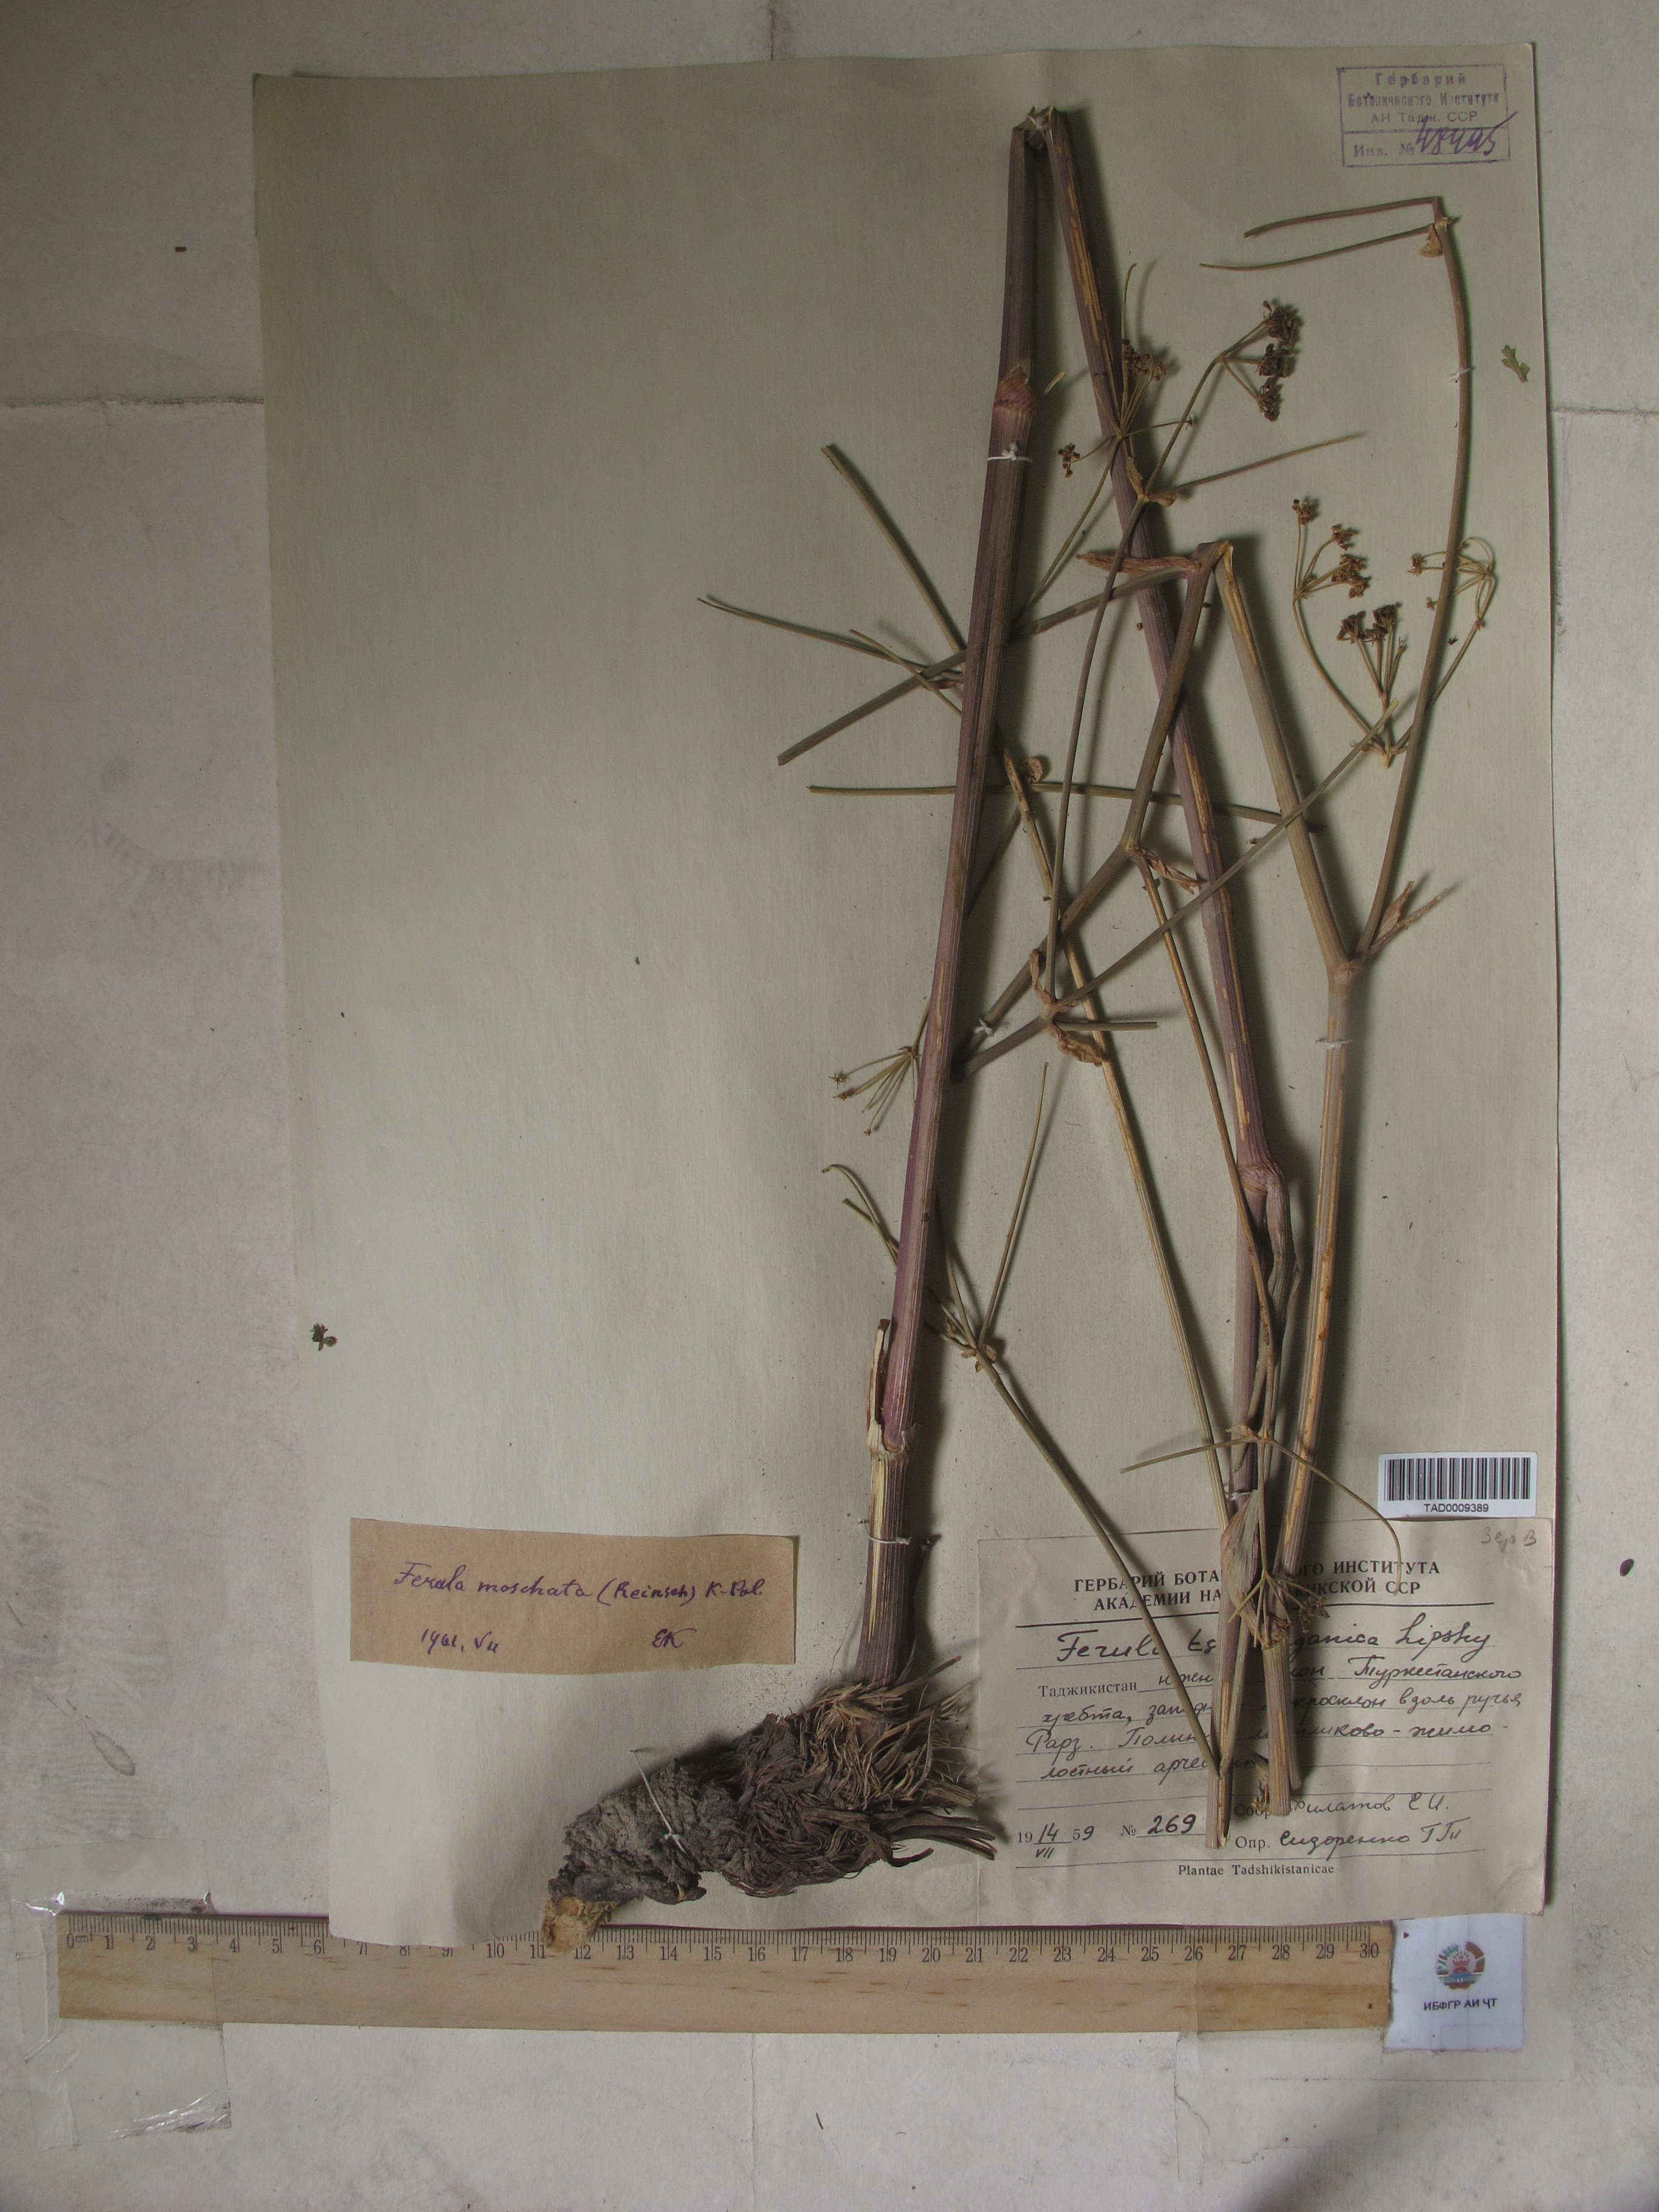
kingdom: Plantae
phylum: Tracheophyta
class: Magnoliopsida
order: Apiales
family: Apiaceae
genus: Ferula
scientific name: Ferula moschata
